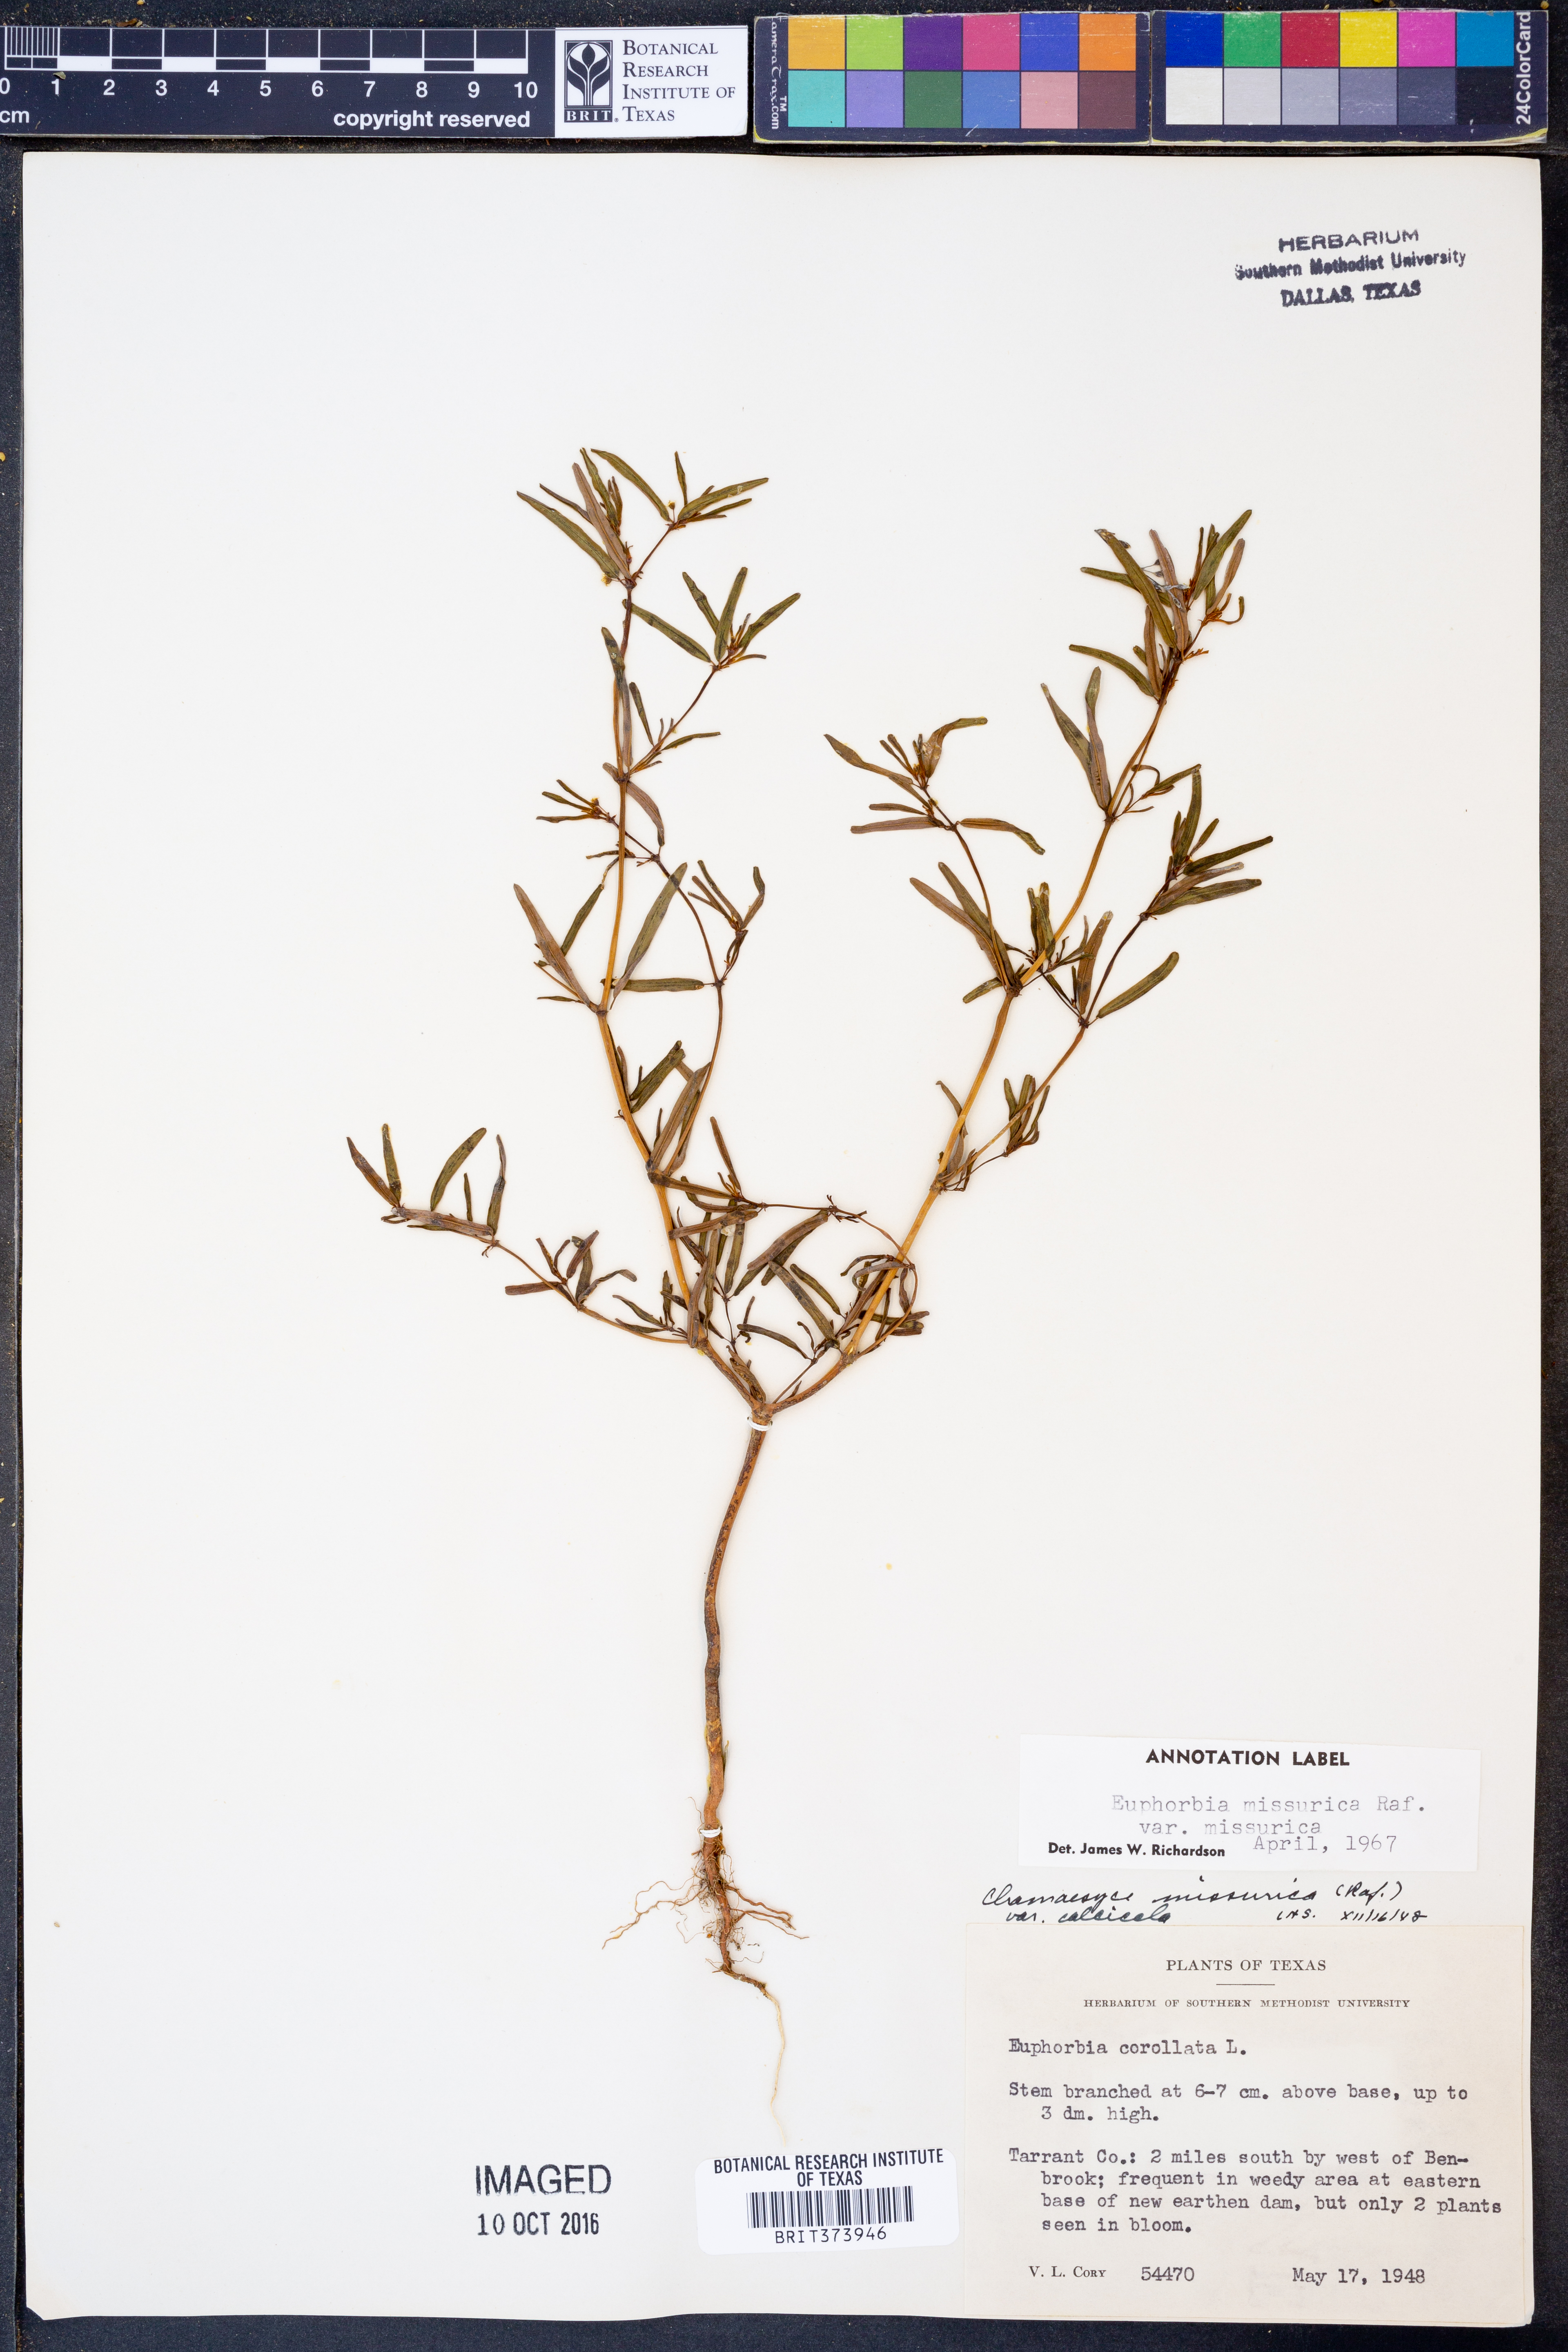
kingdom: Plantae
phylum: Tracheophyta
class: Magnoliopsida
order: Malpighiales
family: Euphorbiaceae
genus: Euphorbia
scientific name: Euphorbia missurica
